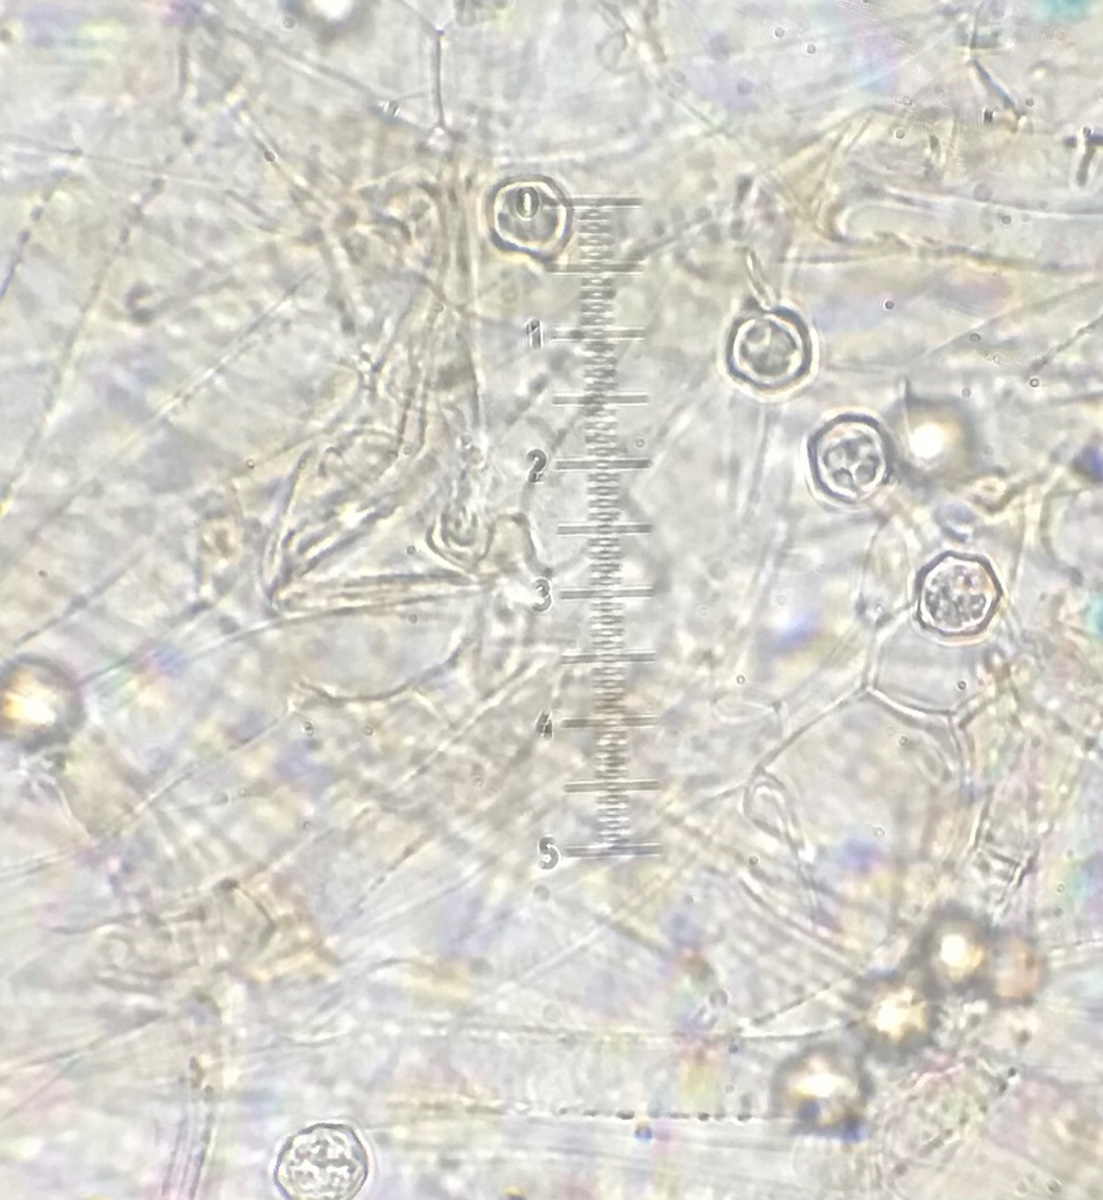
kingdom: Fungi
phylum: Basidiomycota
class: Agaricomycetes
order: Agaricales
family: Entolomataceae
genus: Entoloma
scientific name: Entoloma sericeum
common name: silkeglinsende rødblad
